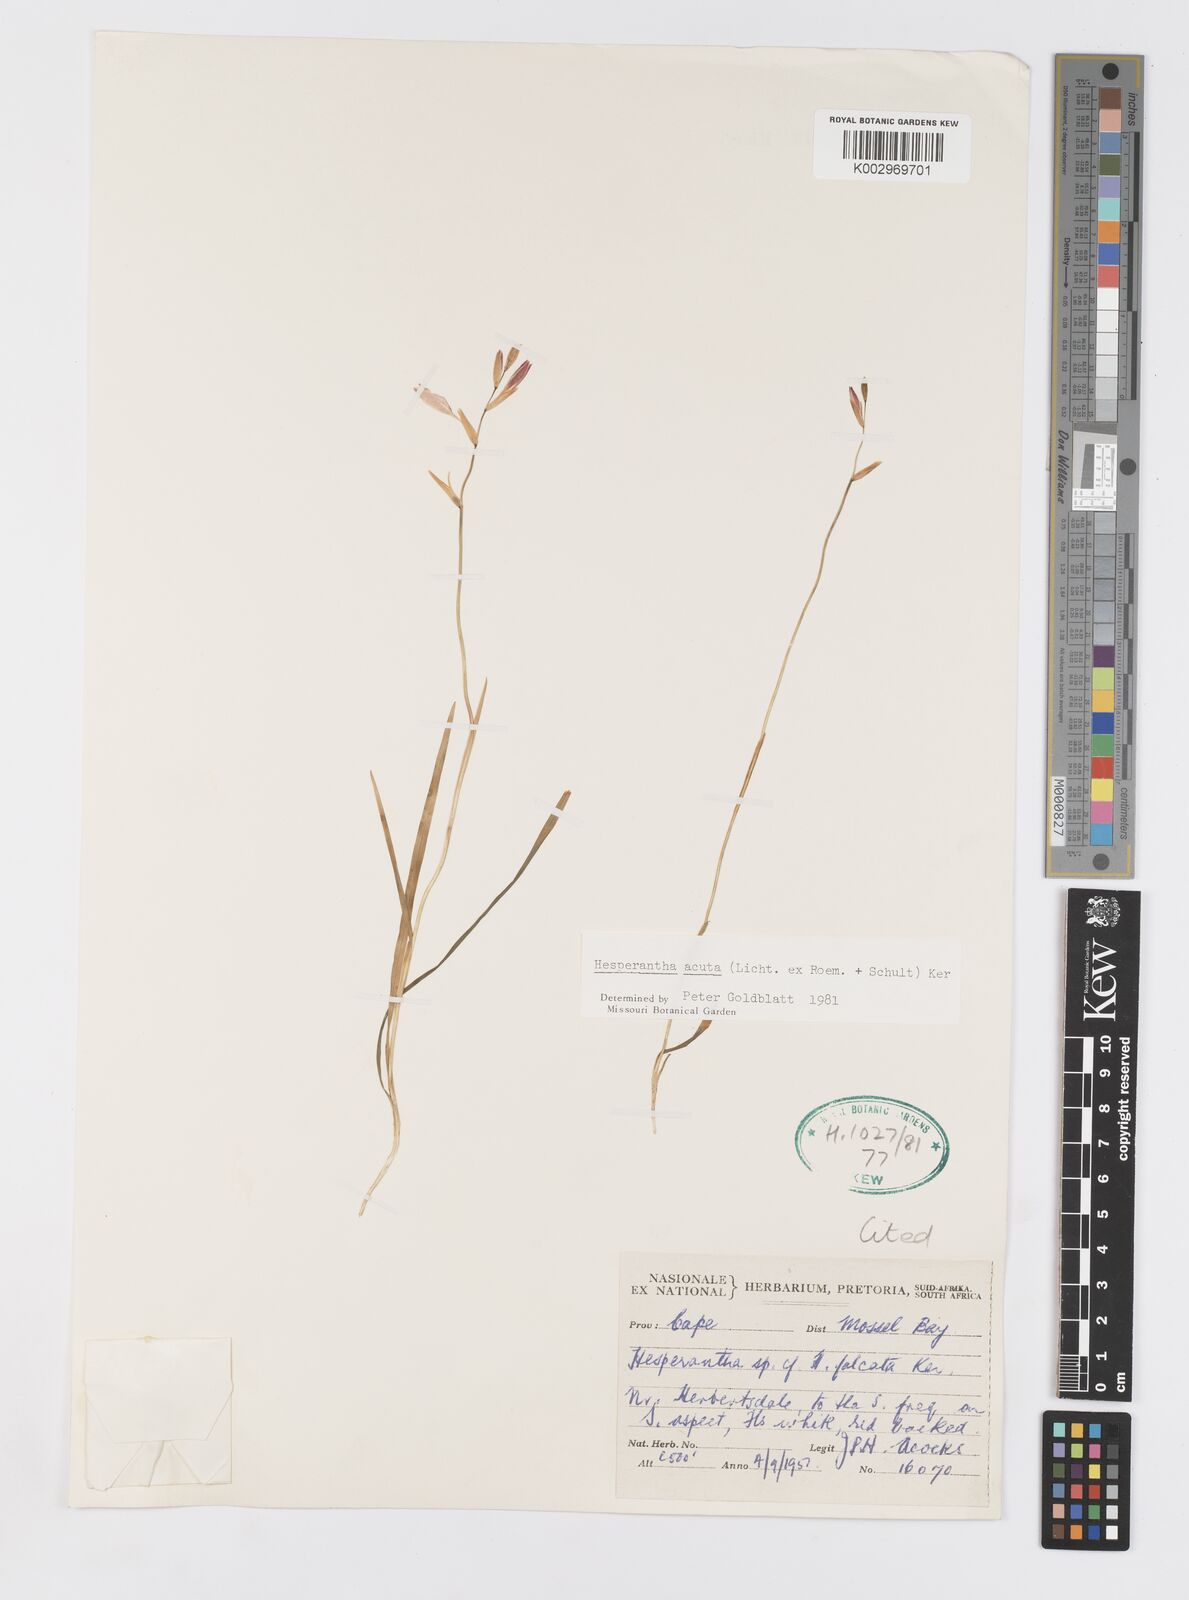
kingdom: Plantae
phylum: Tracheophyta
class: Liliopsida
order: Asparagales
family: Iridaceae
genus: Hesperantha
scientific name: Hesperantha acuta
